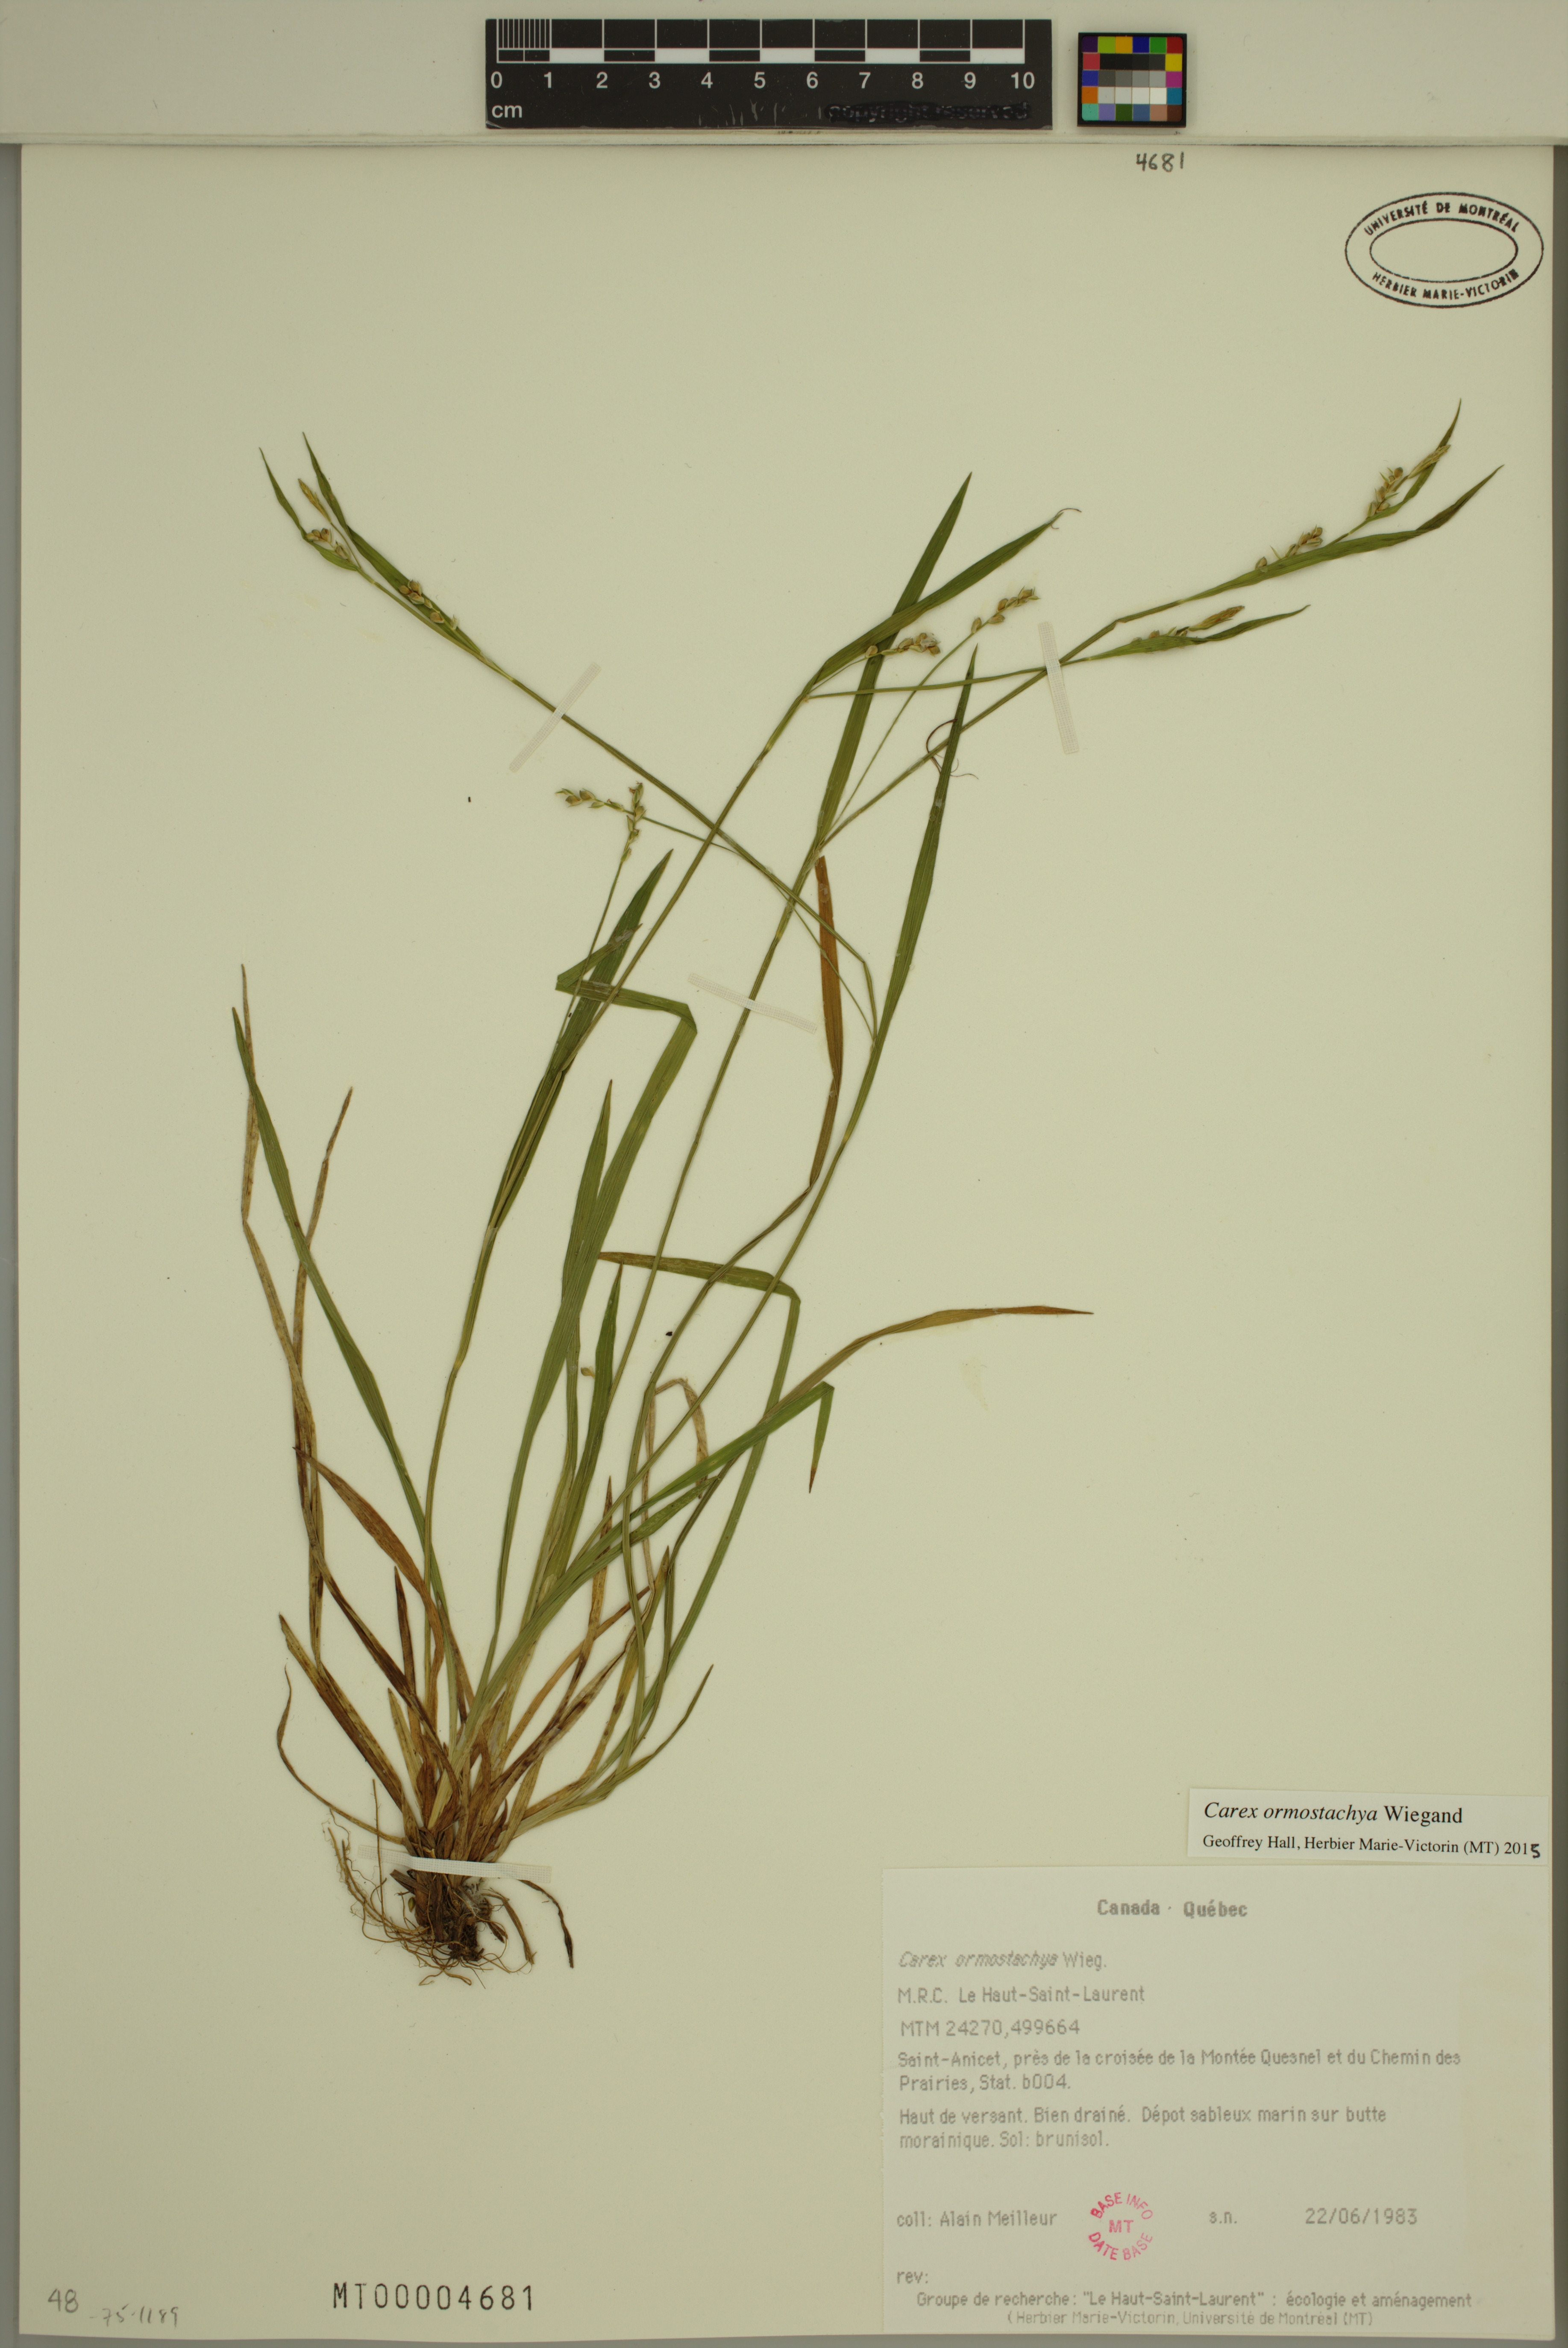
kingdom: Plantae
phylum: Tracheophyta
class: Liliopsida
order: Poales
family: Cyperaceae
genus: Carex
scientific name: Carex ormostachya
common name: Necklace spike sedge
